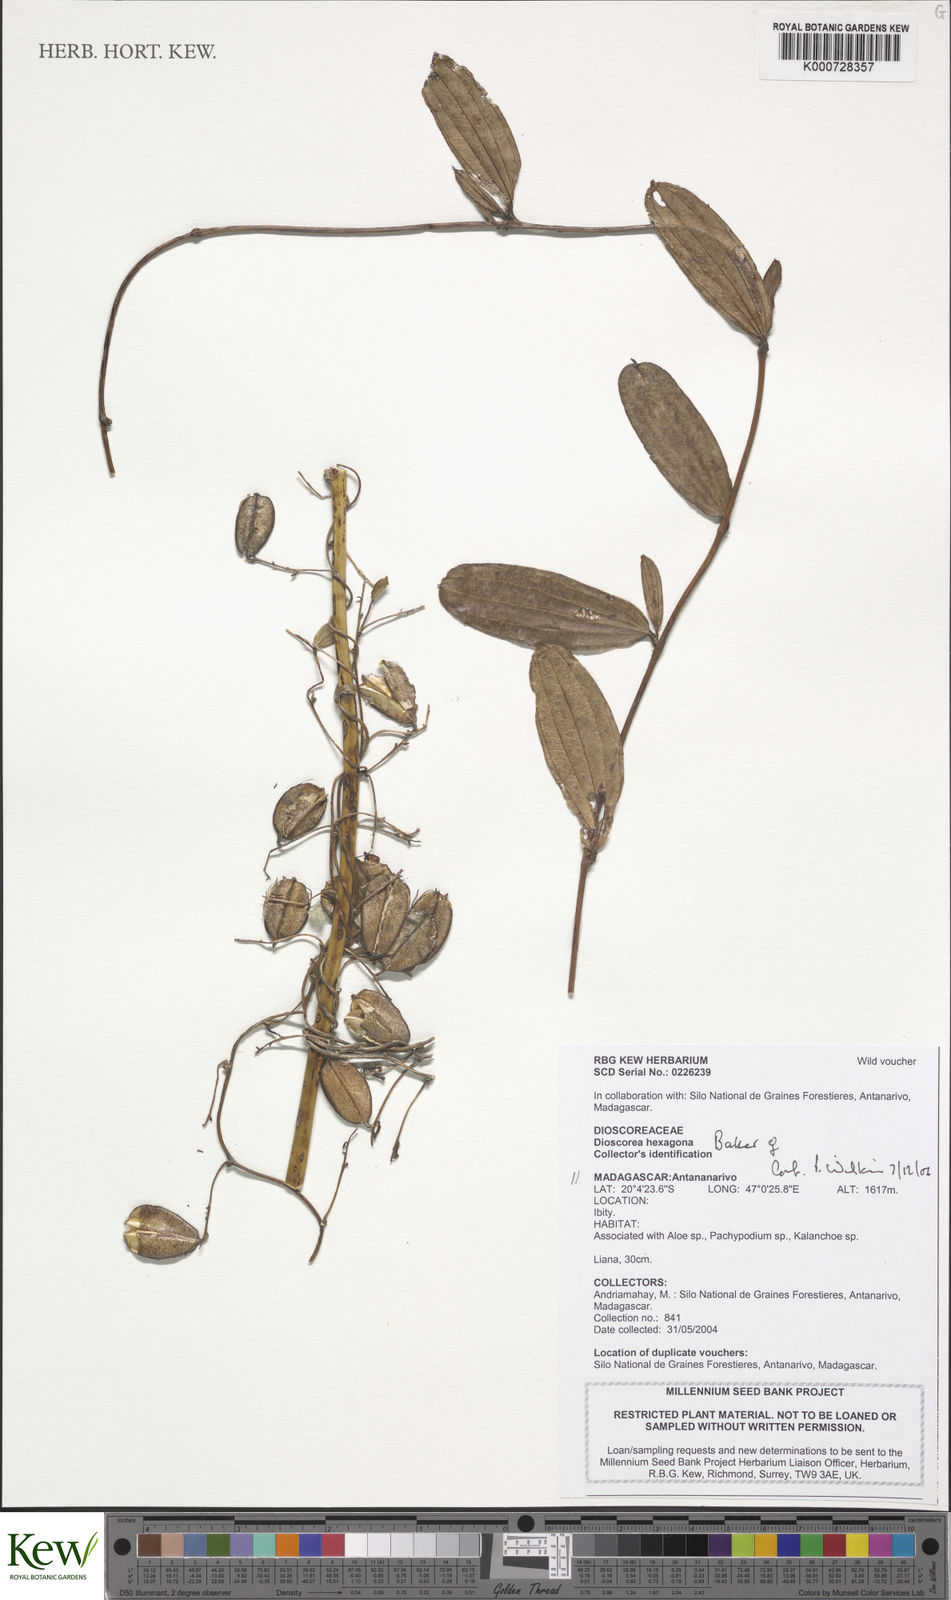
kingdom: Plantae
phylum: Tracheophyta
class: Liliopsida
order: Dioscoreales
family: Dioscoreaceae
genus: Dioscorea
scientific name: Dioscorea hexagona
